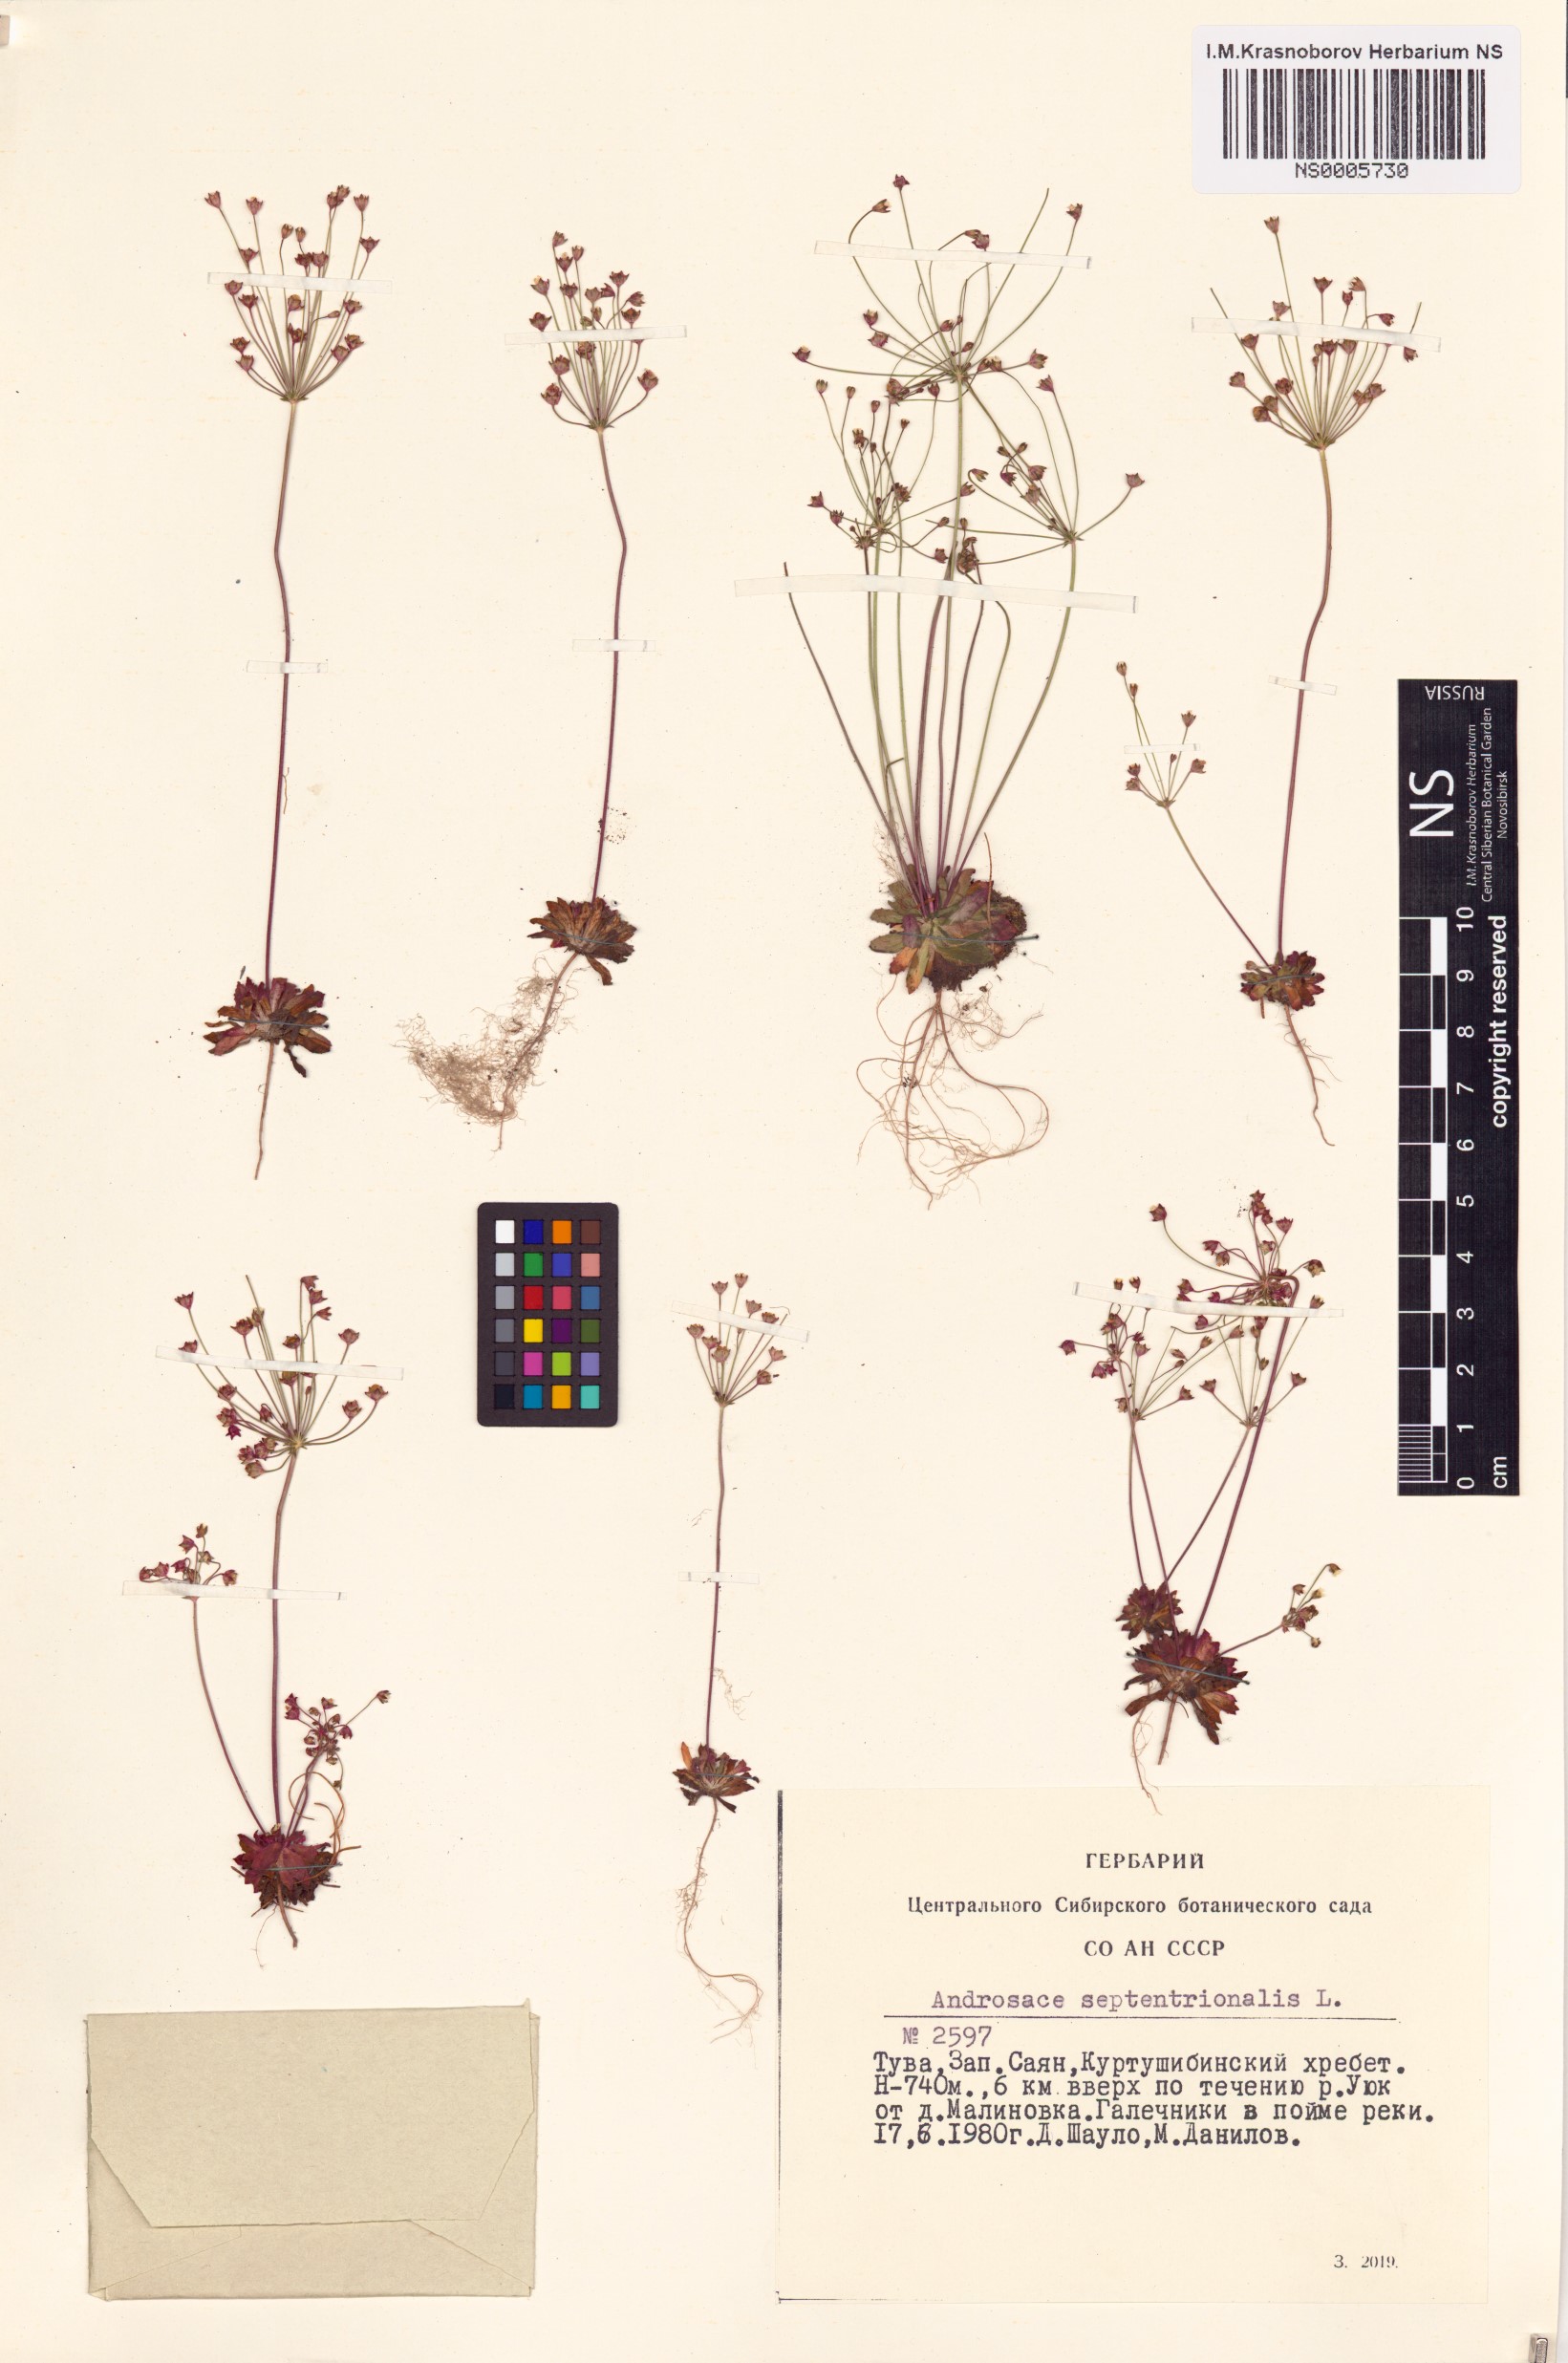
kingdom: Plantae
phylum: Tracheophyta
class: Magnoliopsida
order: Ericales
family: Primulaceae
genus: Androsace
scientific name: Androsace septentrionalis
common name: Hairy northern fairy-candelabra
